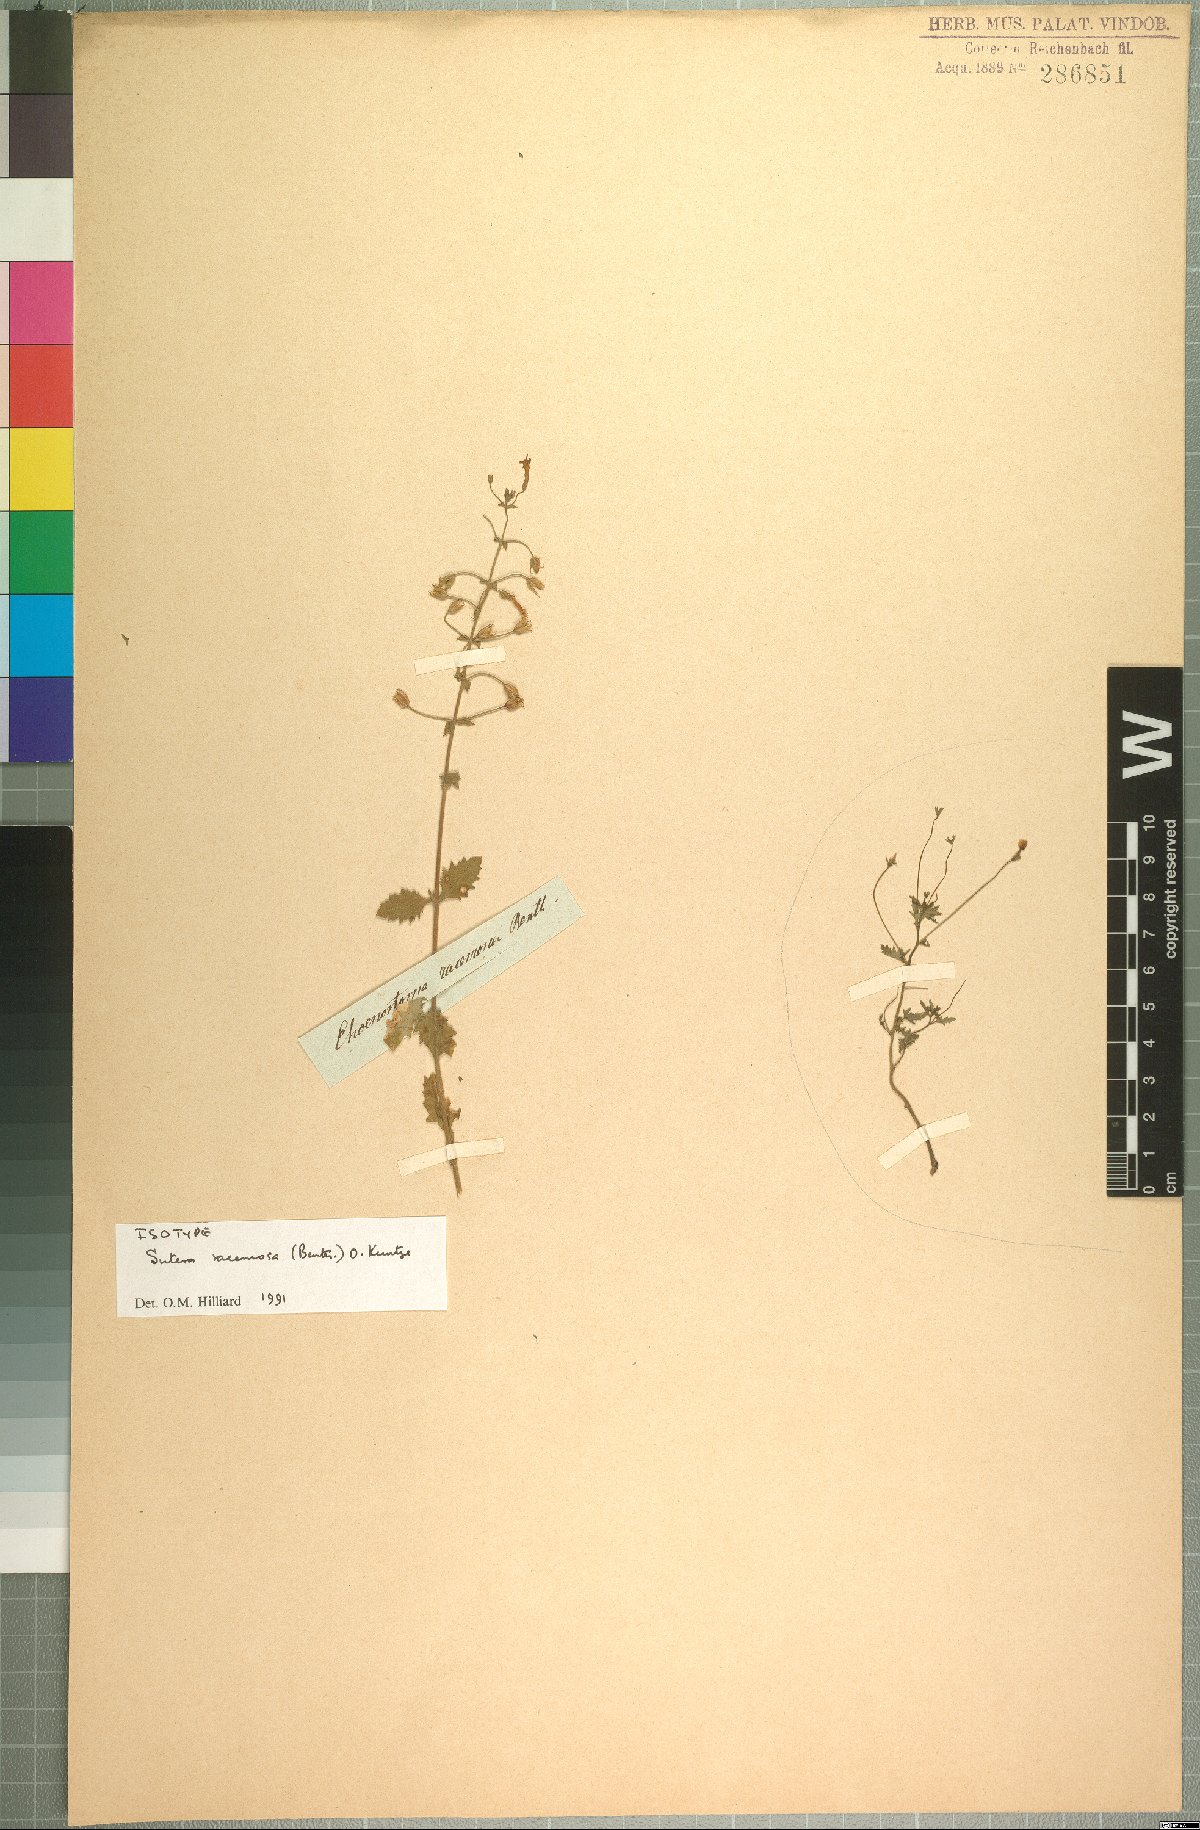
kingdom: Plantae
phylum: Tracheophyta
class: Magnoliopsida
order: Lamiales
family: Scrophulariaceae
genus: Chaenostoma
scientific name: Chaenostoma racemosum
